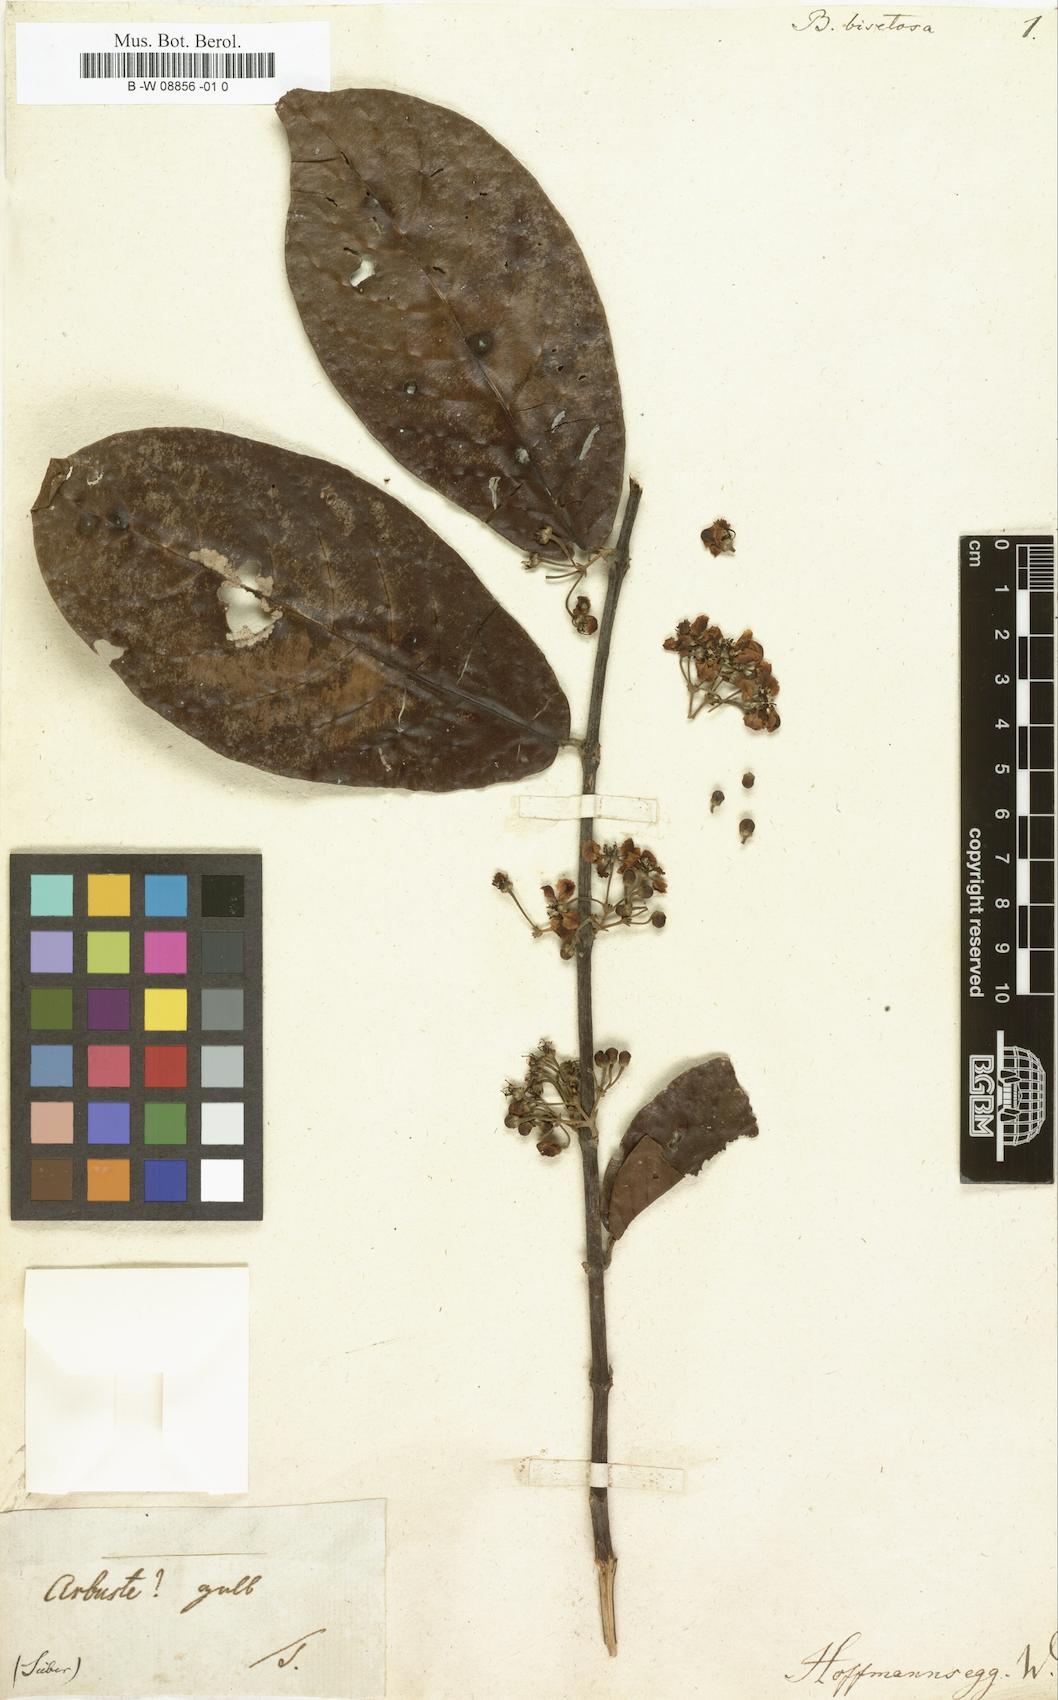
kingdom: Plantae
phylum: Tracheophyta
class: Magnoliopsida
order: Malpighiales
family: Malpighiaceae
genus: Heteropterys
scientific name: Heteropterys
